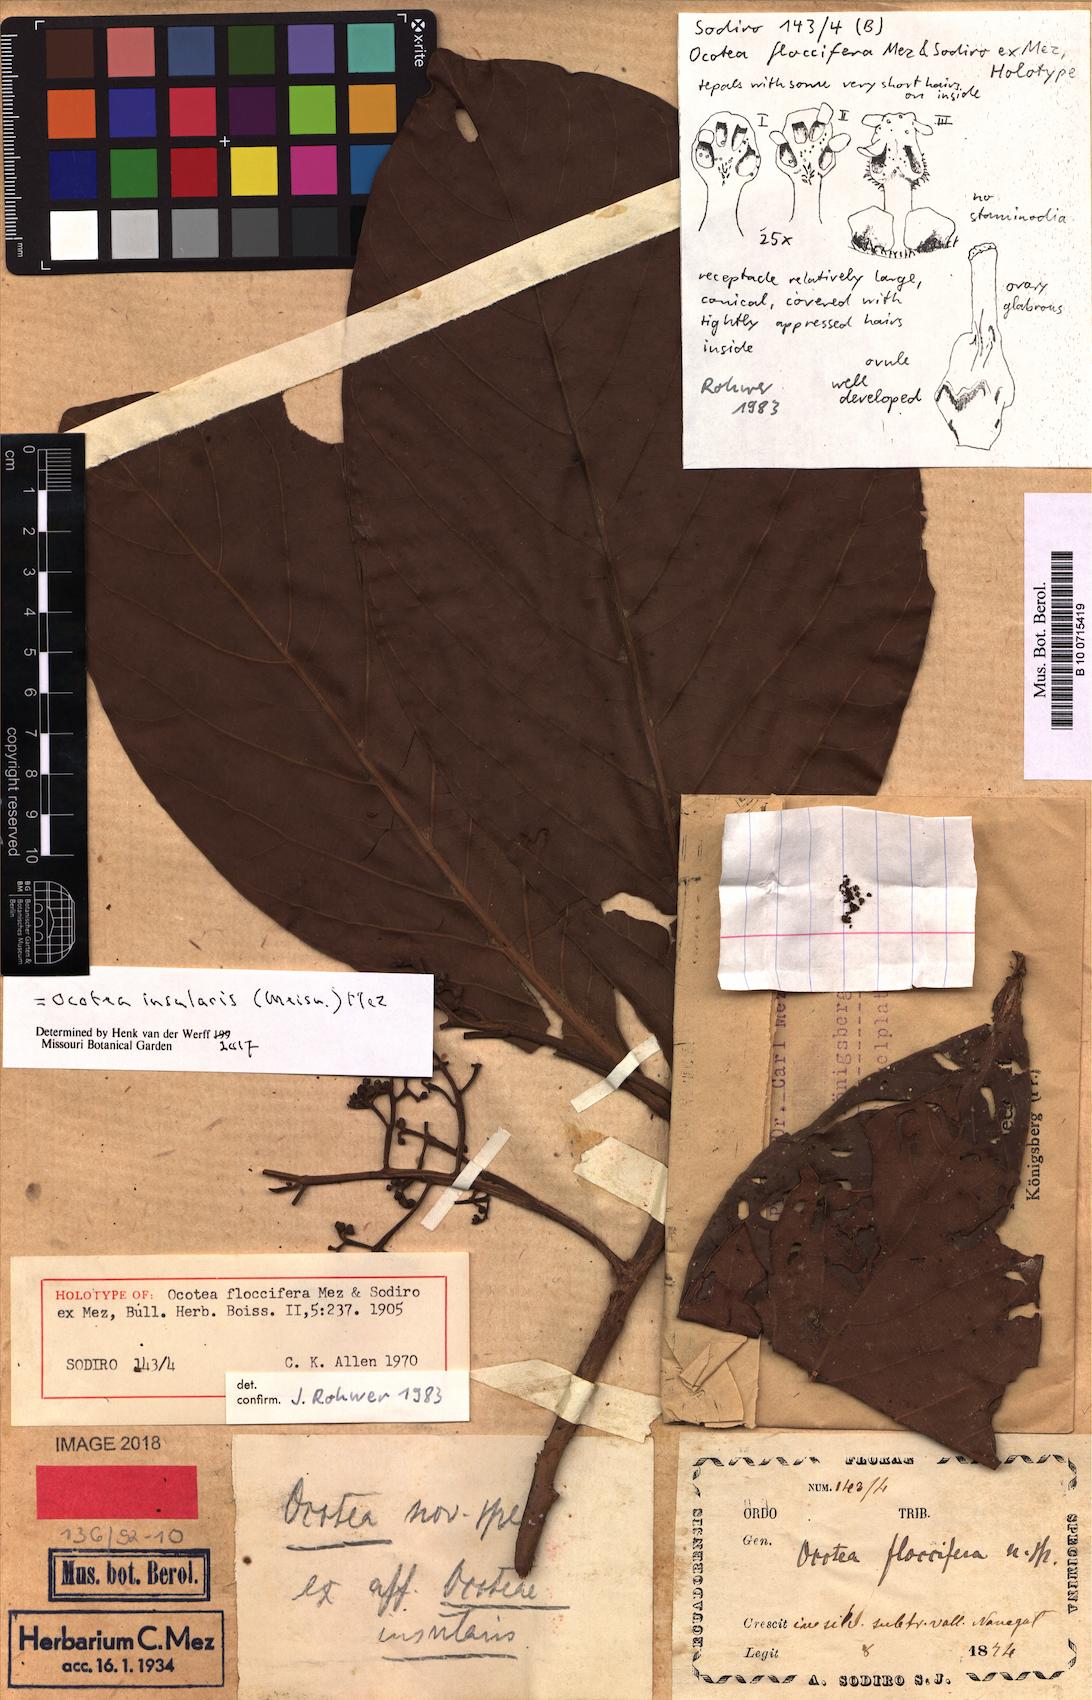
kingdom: Plantae
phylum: Tracheophyta
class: Magnoliopsida
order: Laurales
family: Lauraceae
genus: Ocotea
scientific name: Ocotea insularis
